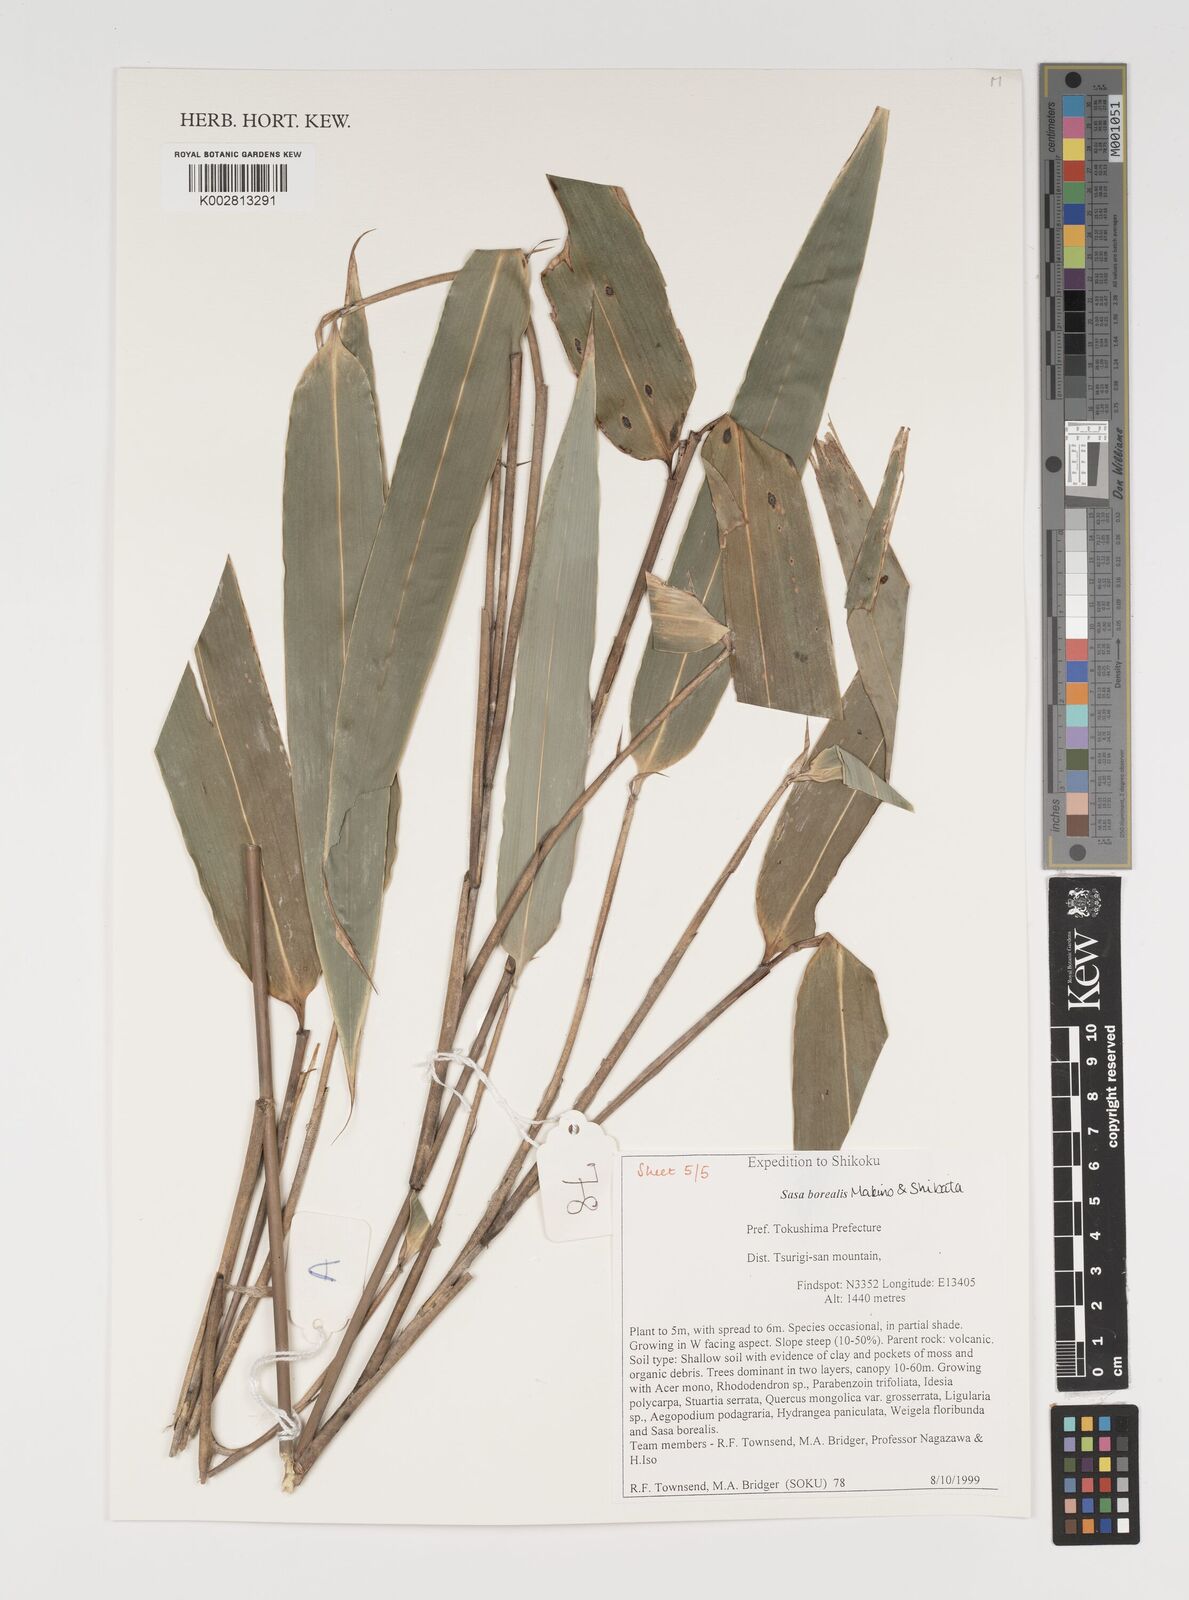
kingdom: Plantae
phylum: Tracheophyta
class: Liliopsida
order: Poales
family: Poaceae
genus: Sasamorpha
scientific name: Sasamorpha borealis
